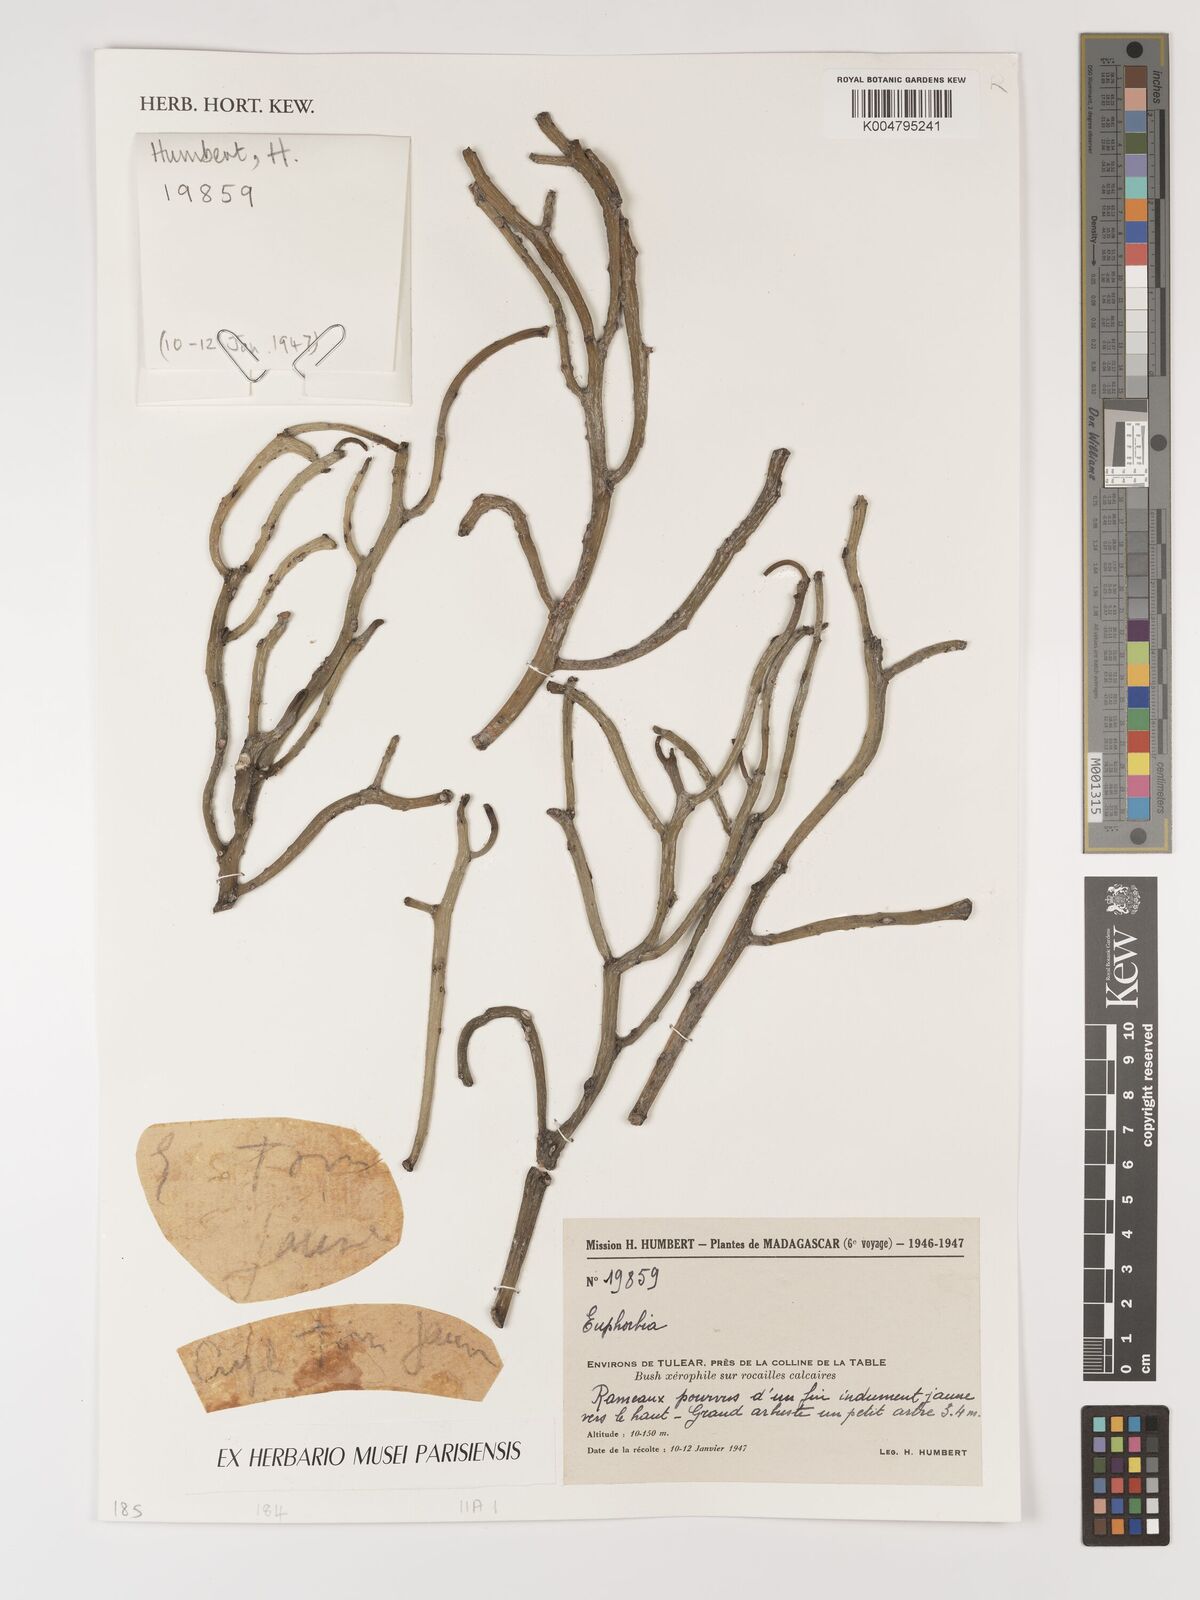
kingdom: Plantae
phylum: Tracheophyta
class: Magnoliopsida
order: Malpighiales
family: Euphorbiaceae
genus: Euphorbia
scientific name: Euphorbia
